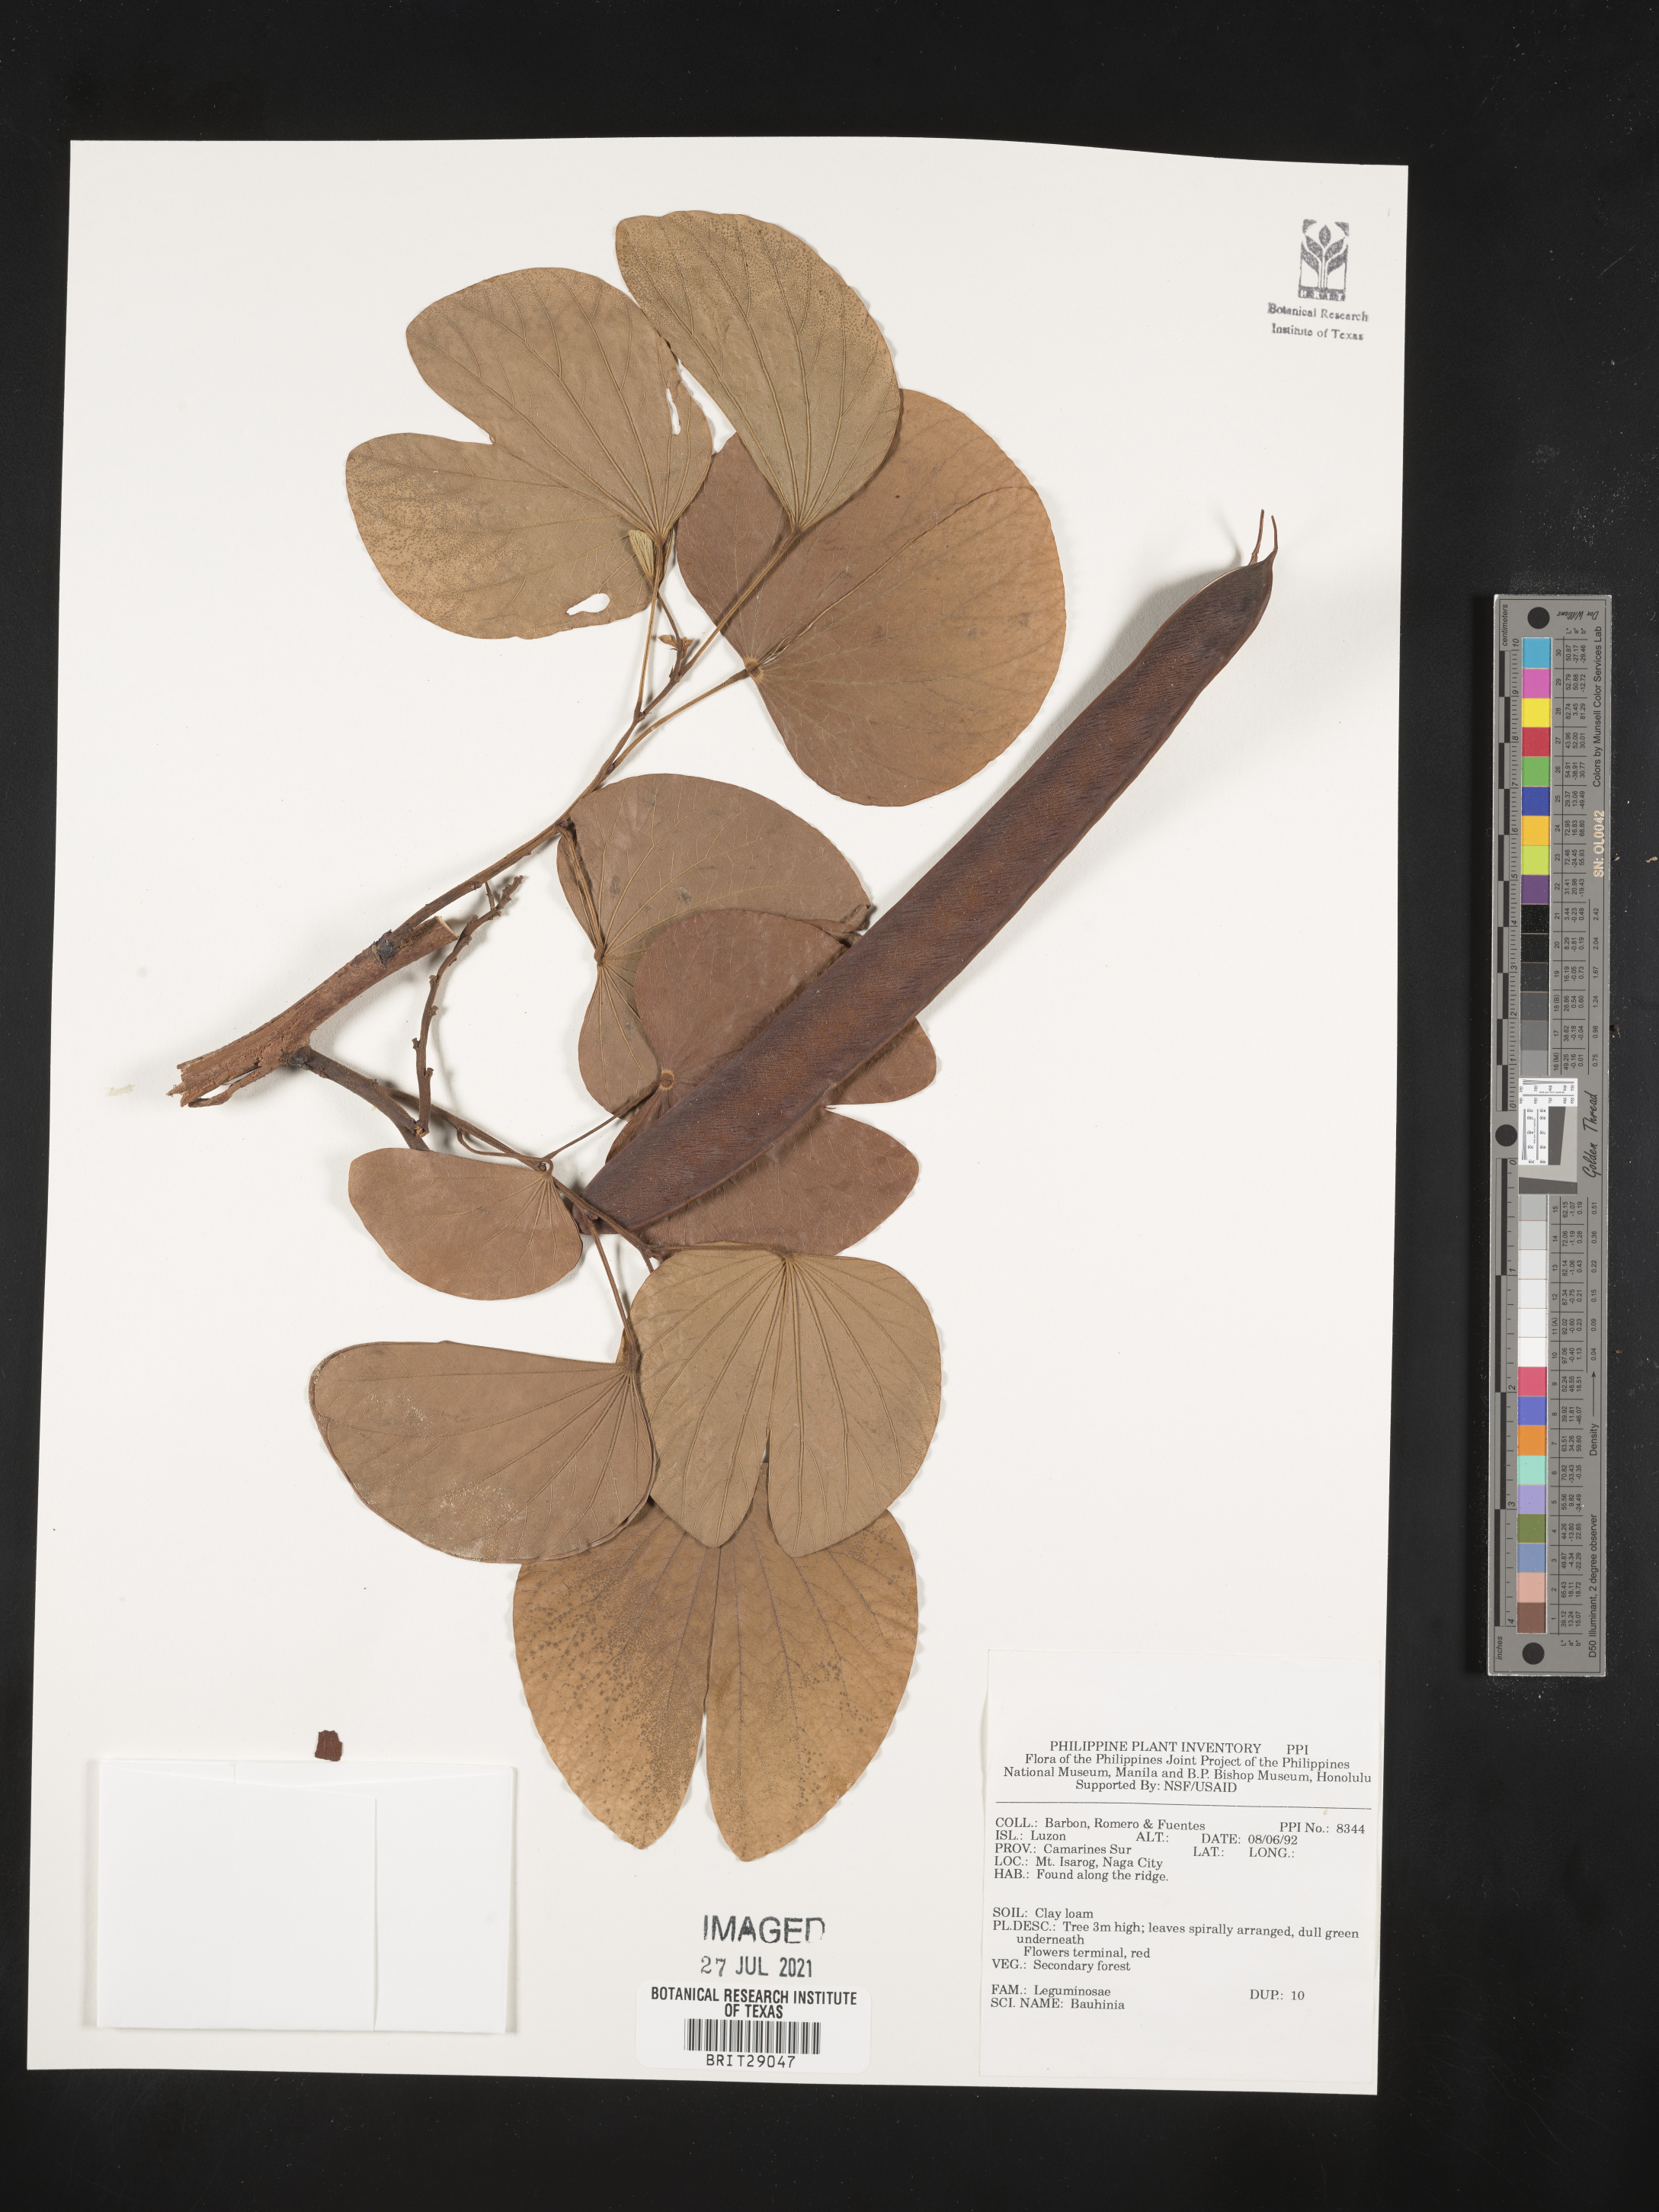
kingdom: Plantae
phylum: Tracheophyta
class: Magnoliopsida
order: Fabales
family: Fabaceae
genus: Bauhinia
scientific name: Bauhinia
